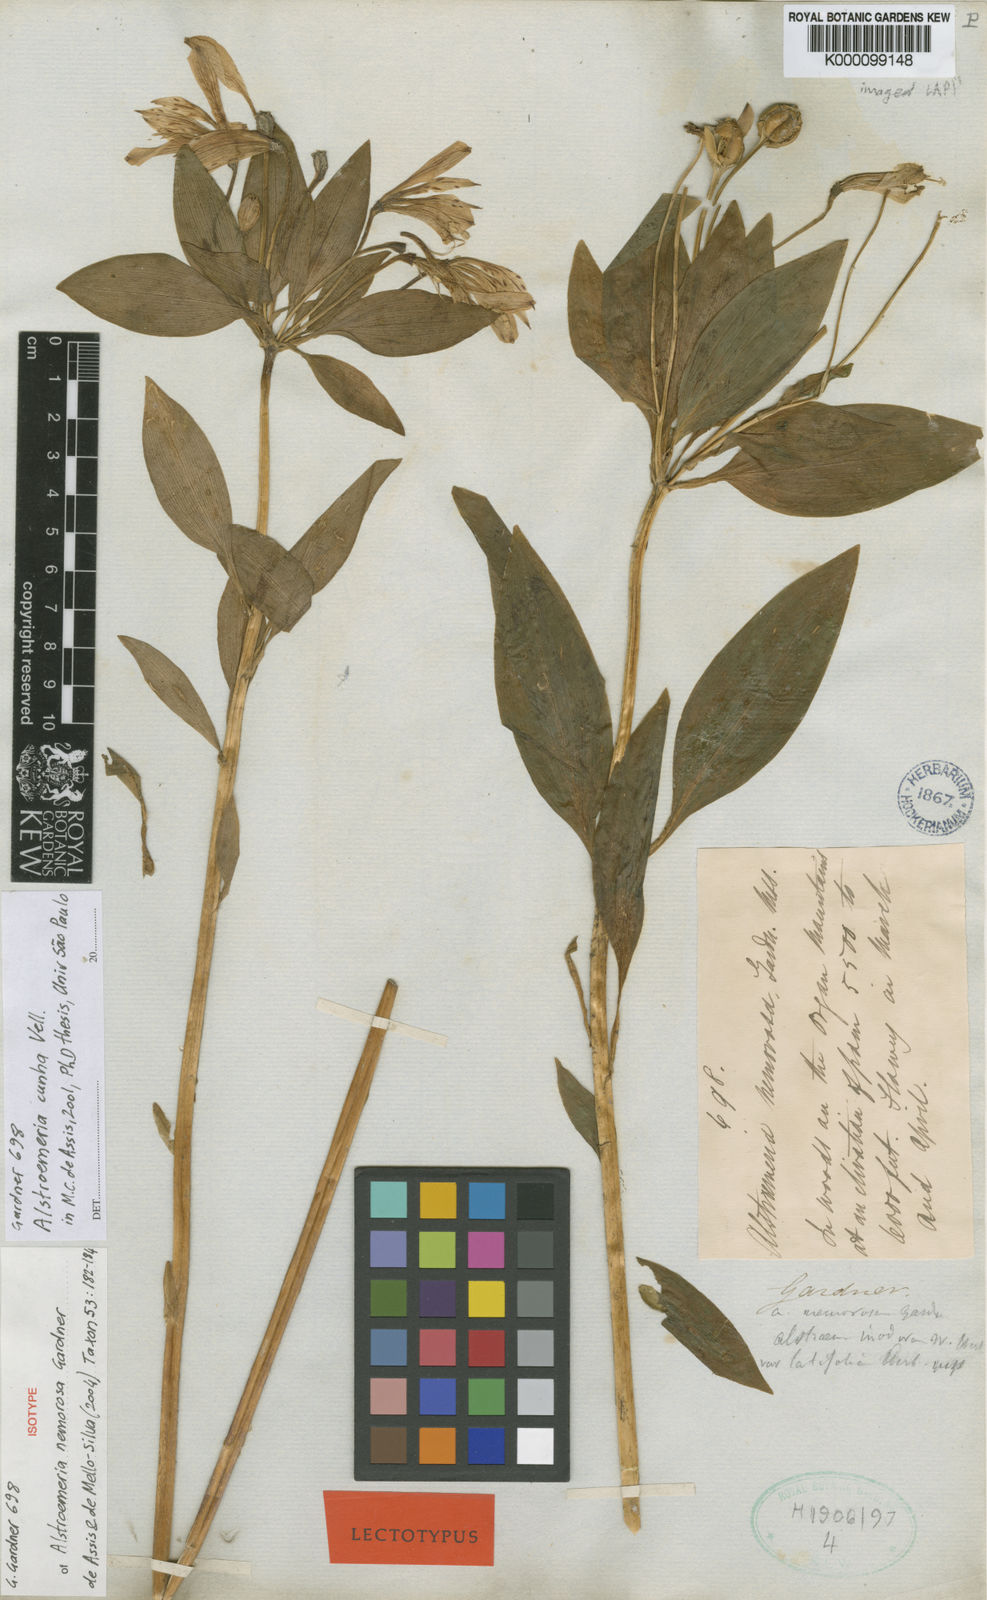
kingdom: Plantae
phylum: Tracheophyta
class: Liliopsida
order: Liliales
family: Alstroemeriaceae
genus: Alstroemeria
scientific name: Alstroemeria cunha
